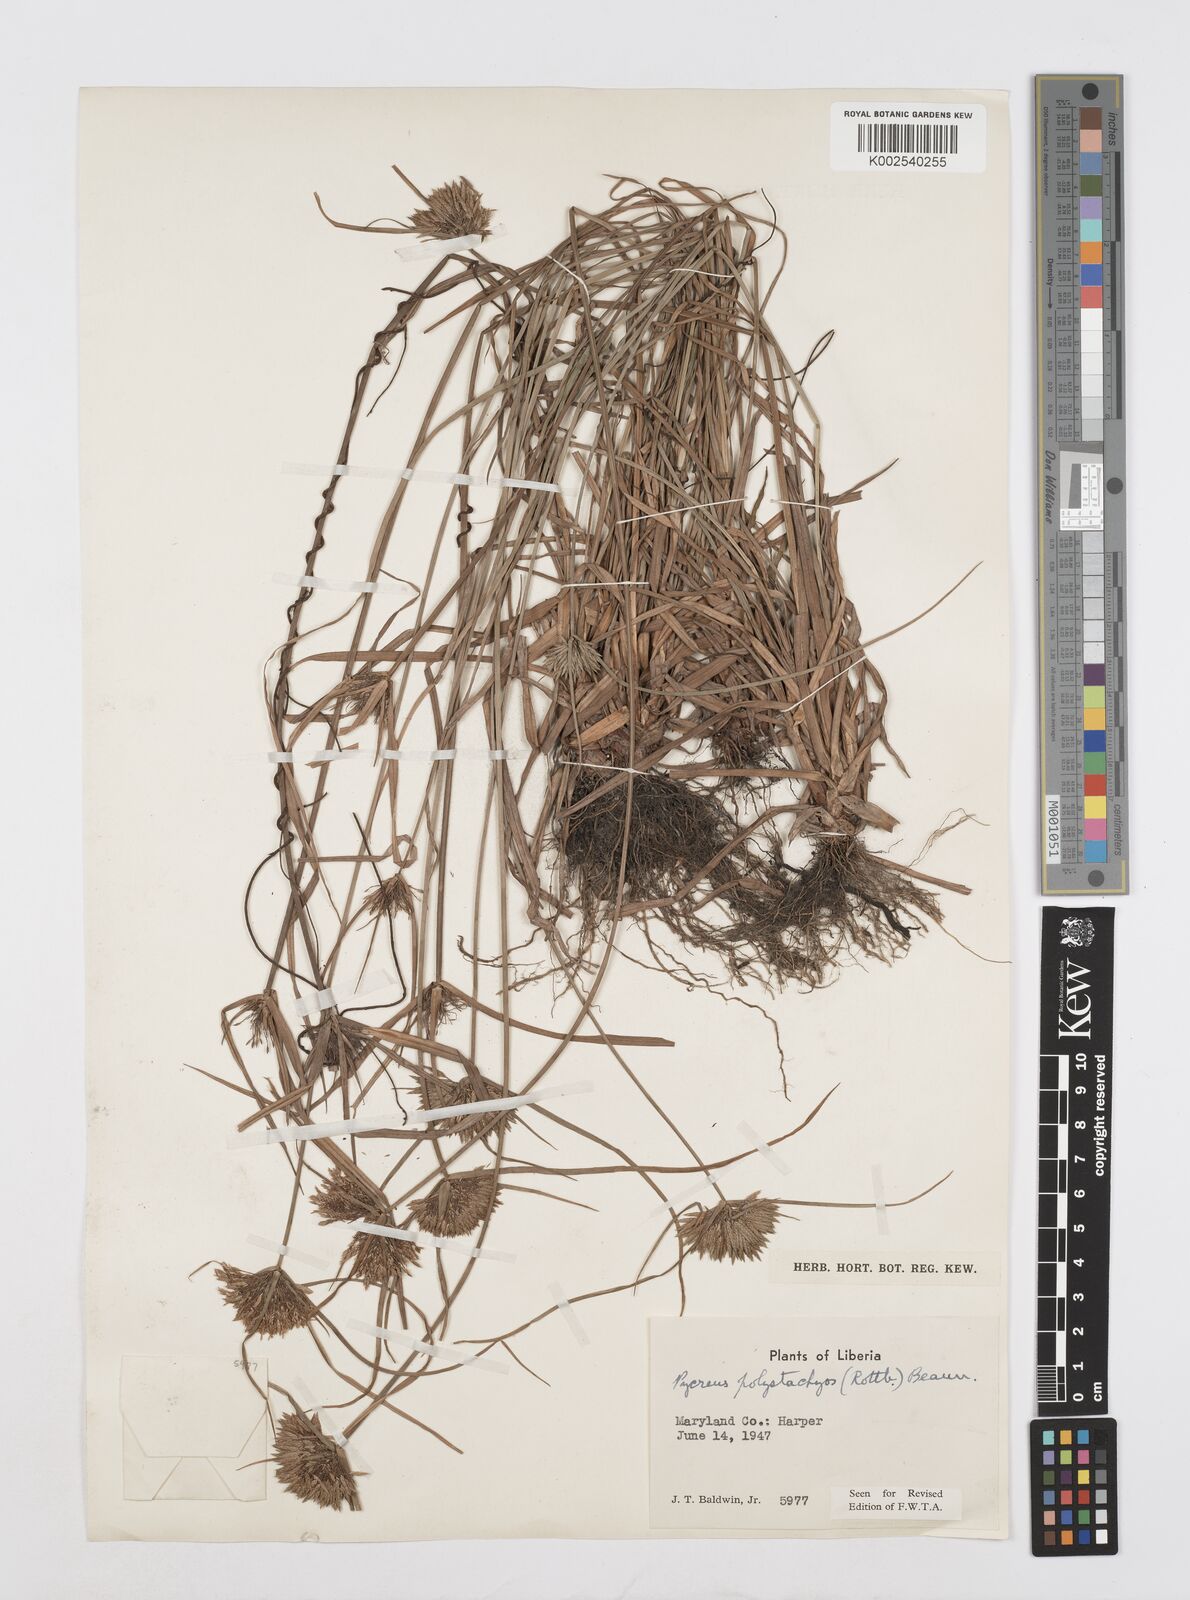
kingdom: Plantae
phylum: Tracheophyta
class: Liliopsida
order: Poales
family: Cyperaceae
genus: Cyperus
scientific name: Cyperus polystachyos
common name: Bunchy flat sedge
